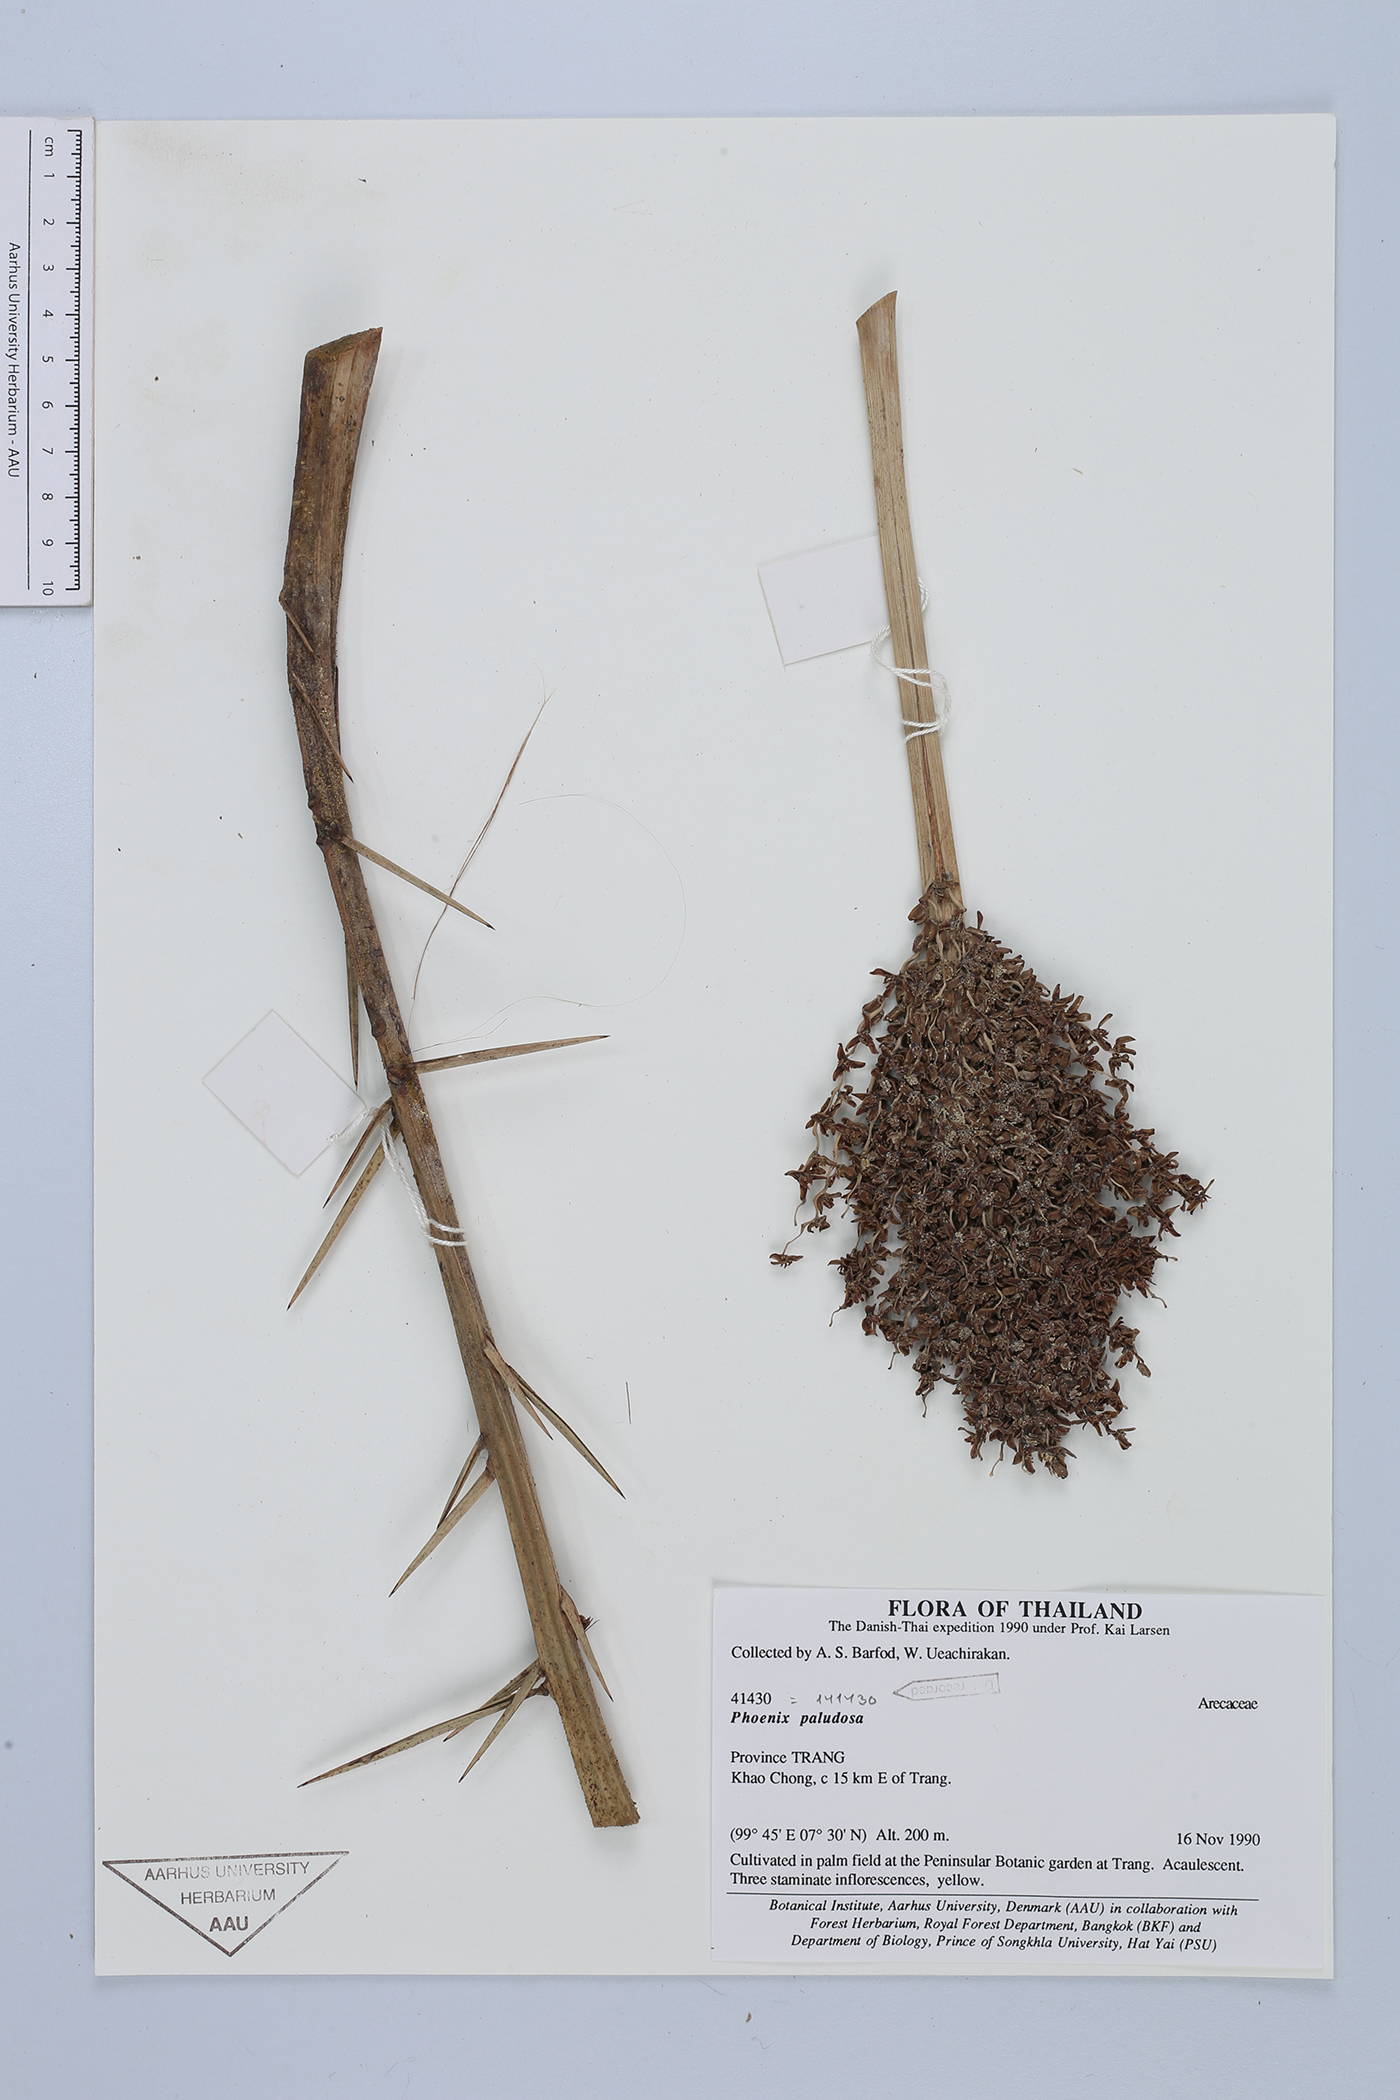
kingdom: Plantae
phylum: Tracheophyta
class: Liliopsida
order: Arecales
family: Arecaceae
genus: Phoenix
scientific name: Phoenix paludosa
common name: Mangrove date palm
